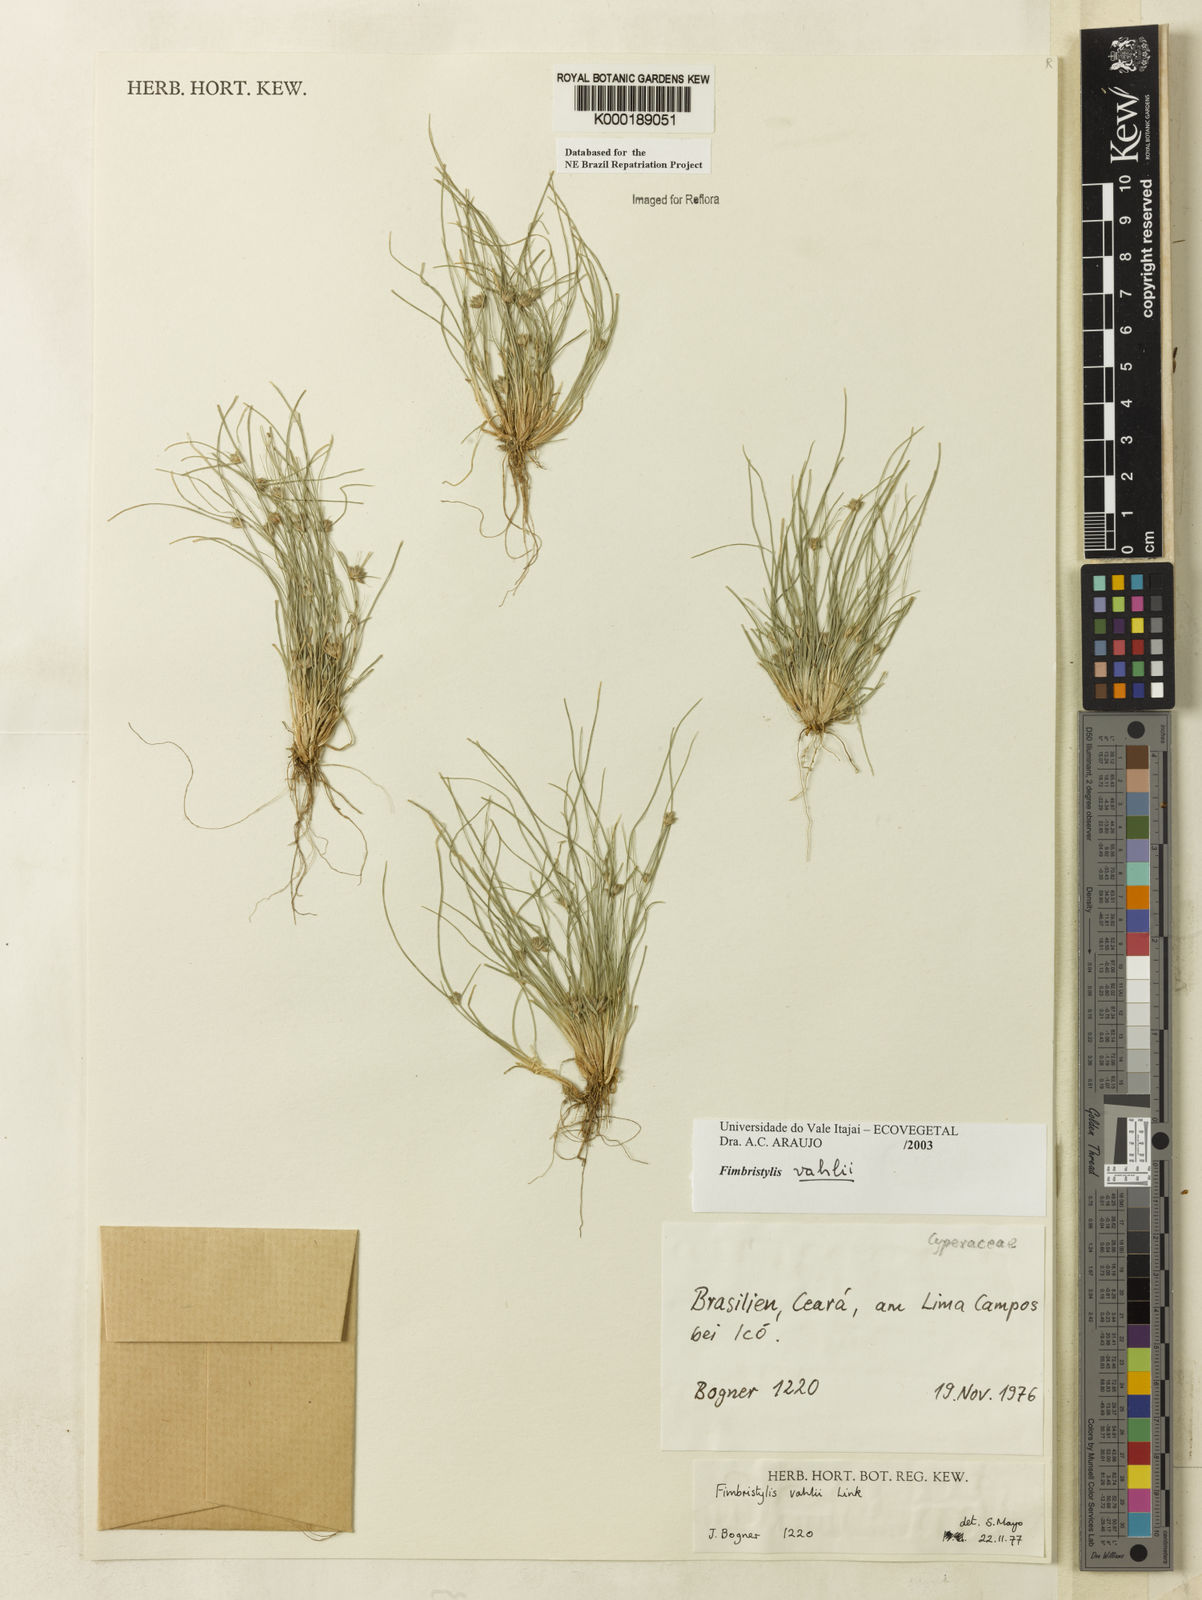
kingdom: Plantae
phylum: Tracheophyta
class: Liliopsida
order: Poales
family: Cyperaceae
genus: Fimbristylis
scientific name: Fimbristylis vahlii
